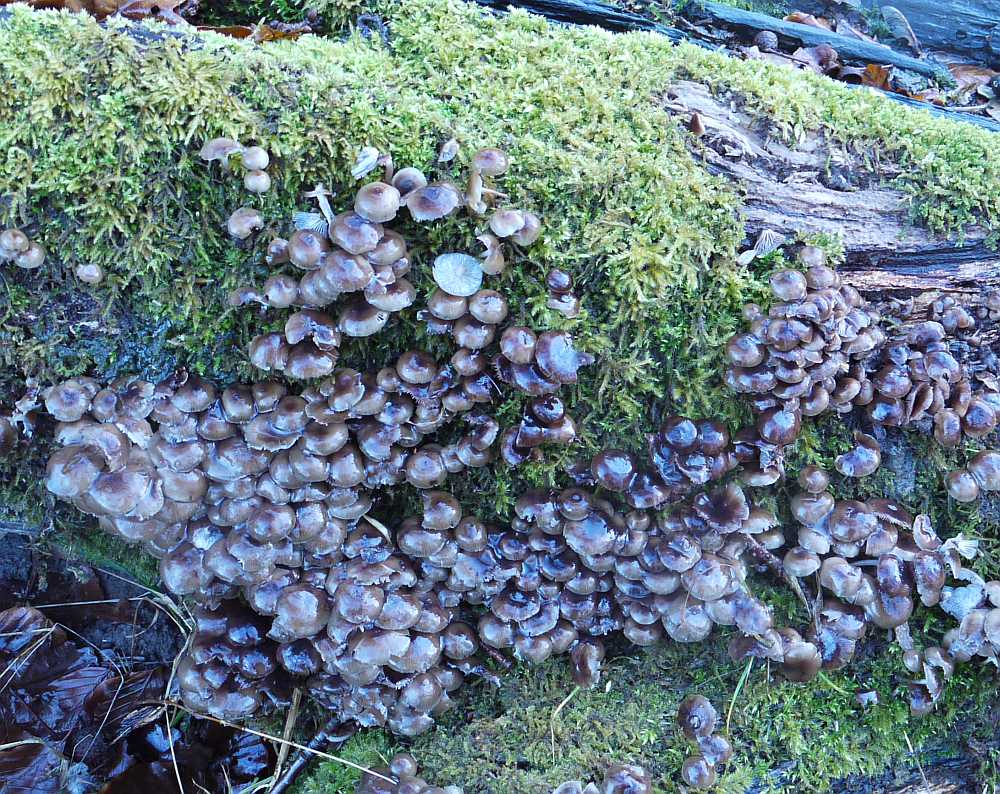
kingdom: Fungi
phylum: Basidiomycota
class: Agaricomycetes
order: Agaricales
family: Mycenaceae
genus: Mycena
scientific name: Mycena tintinnabulum
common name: vinter-huesvamp
